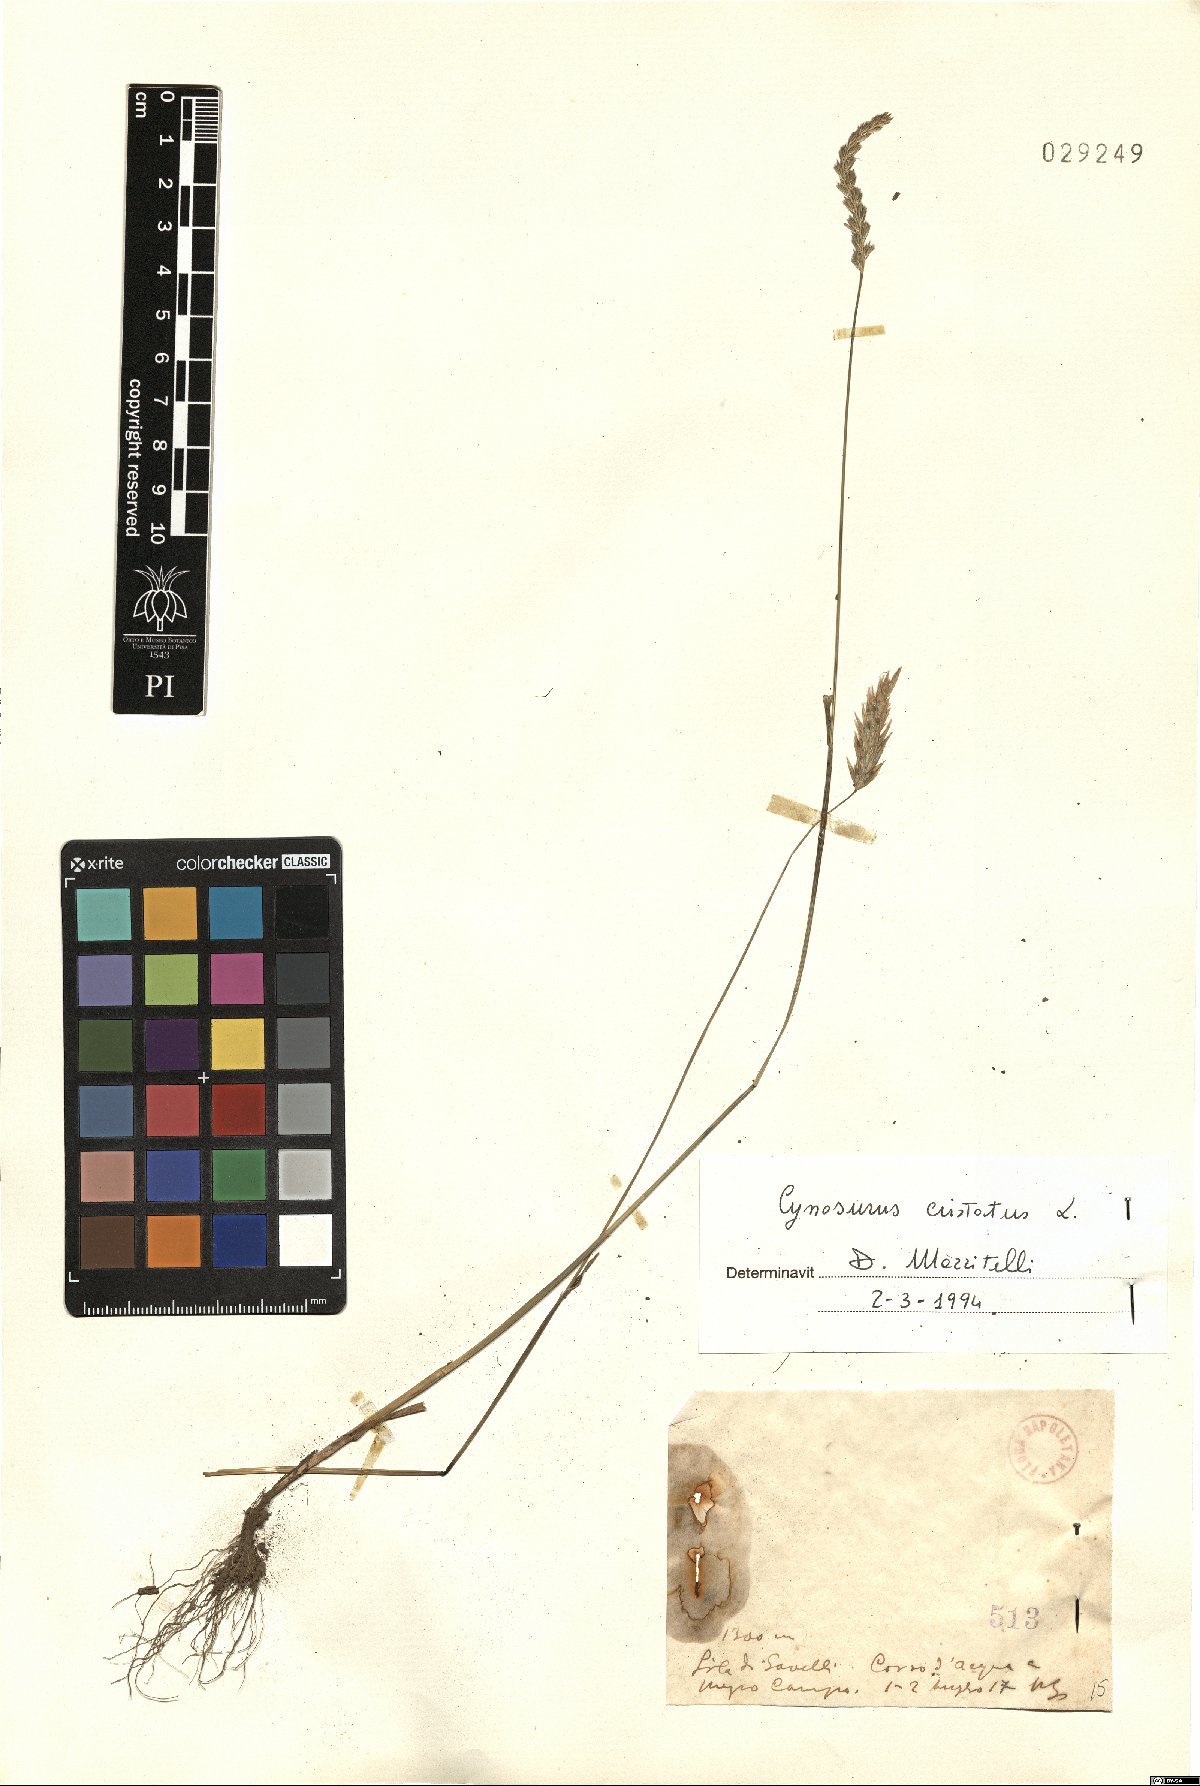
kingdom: Plantae
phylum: Tracheophyta
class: Liliopsida
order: Poales
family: Poaceae
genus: Cynosurus
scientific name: Cynosurus cristatus
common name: Crested dog's-tail
